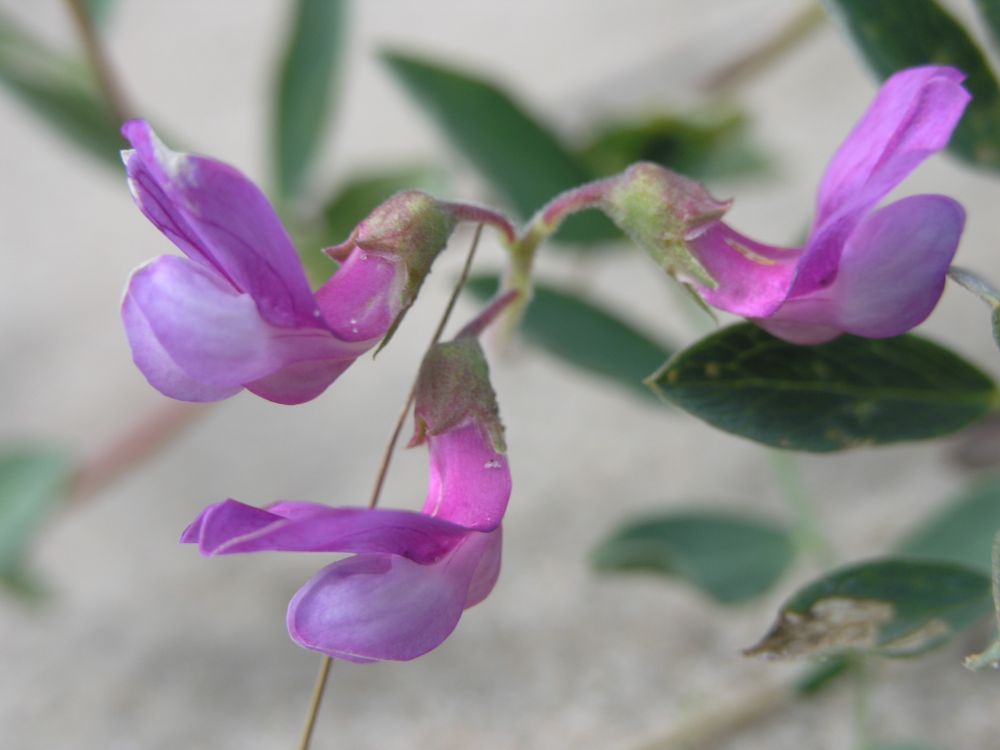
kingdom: Plantae
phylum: Tracheophyta
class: Magnoliopsida
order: Fabales
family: Fabaceae
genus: Lathyrus
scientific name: Lathyrus japonicus
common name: Sea pea
